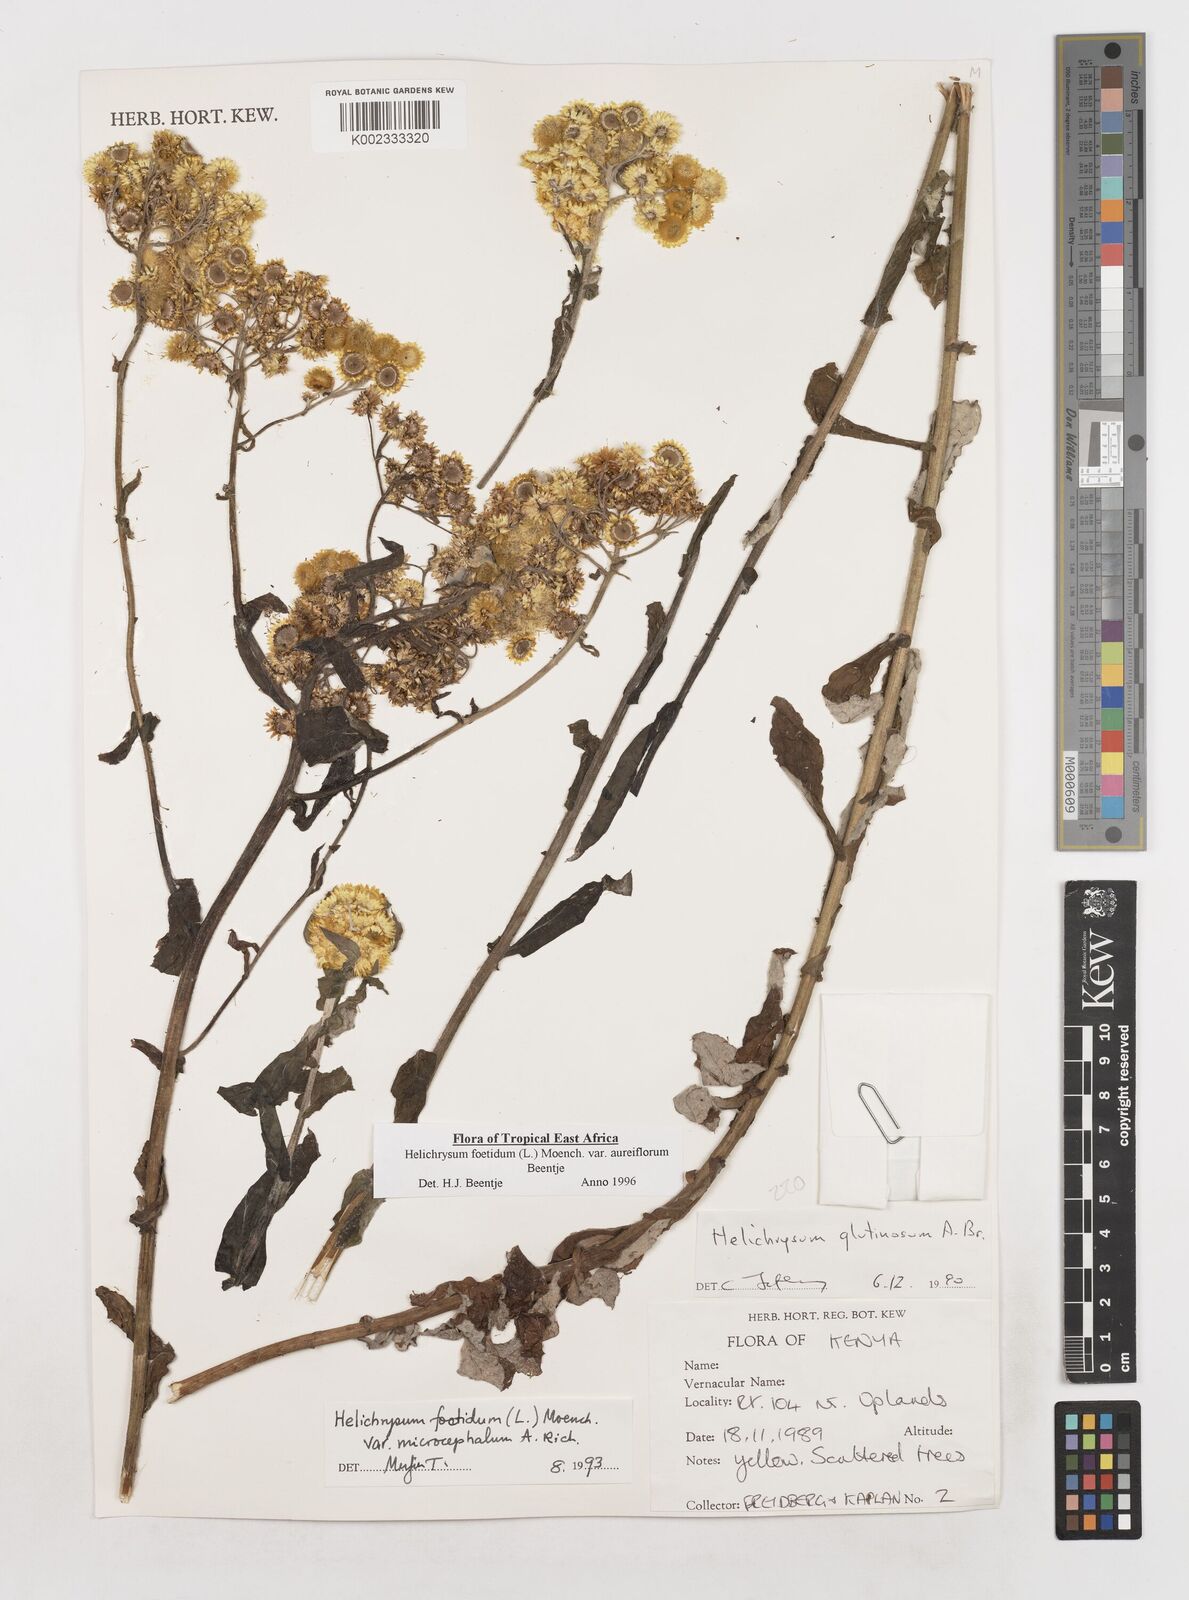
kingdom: Plantae
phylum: Tracheophyta
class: Magnoliopsida
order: Asterales
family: Asteraceae
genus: Helichrysum
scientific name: Helichrysum foetidum
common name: Stinking everlasting
